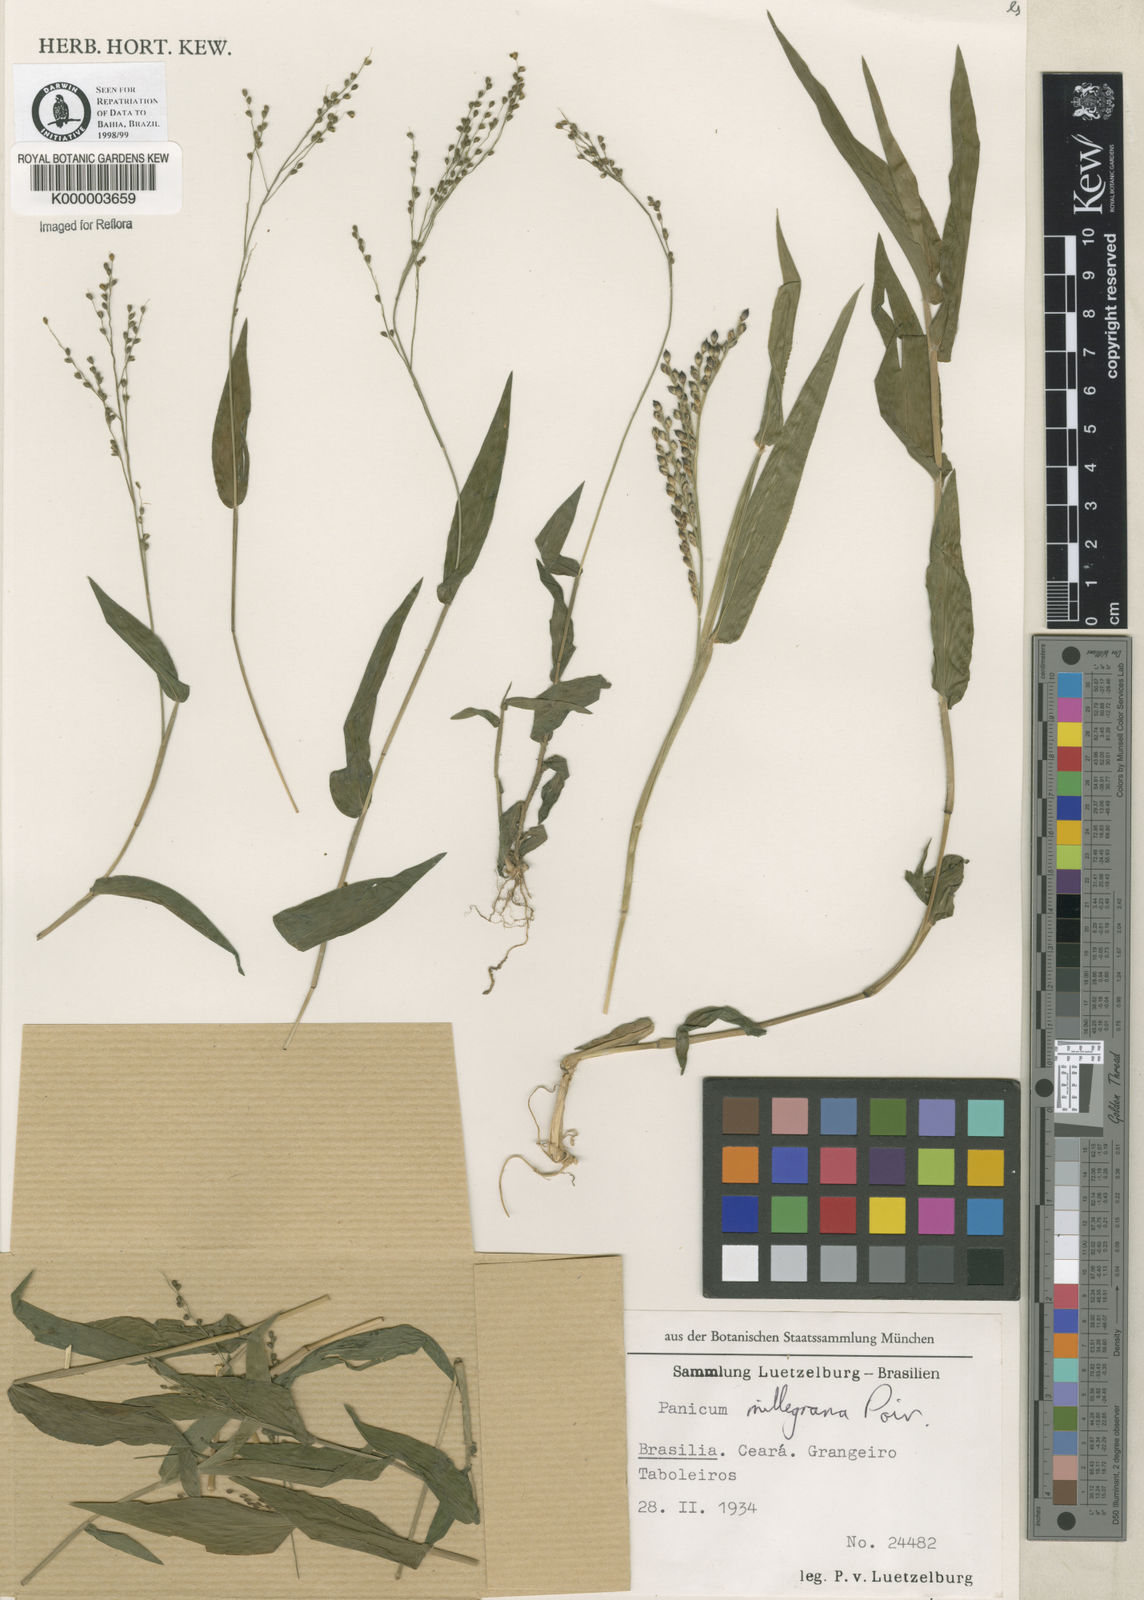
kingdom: Plantae
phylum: Tracheophyta
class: Liliopsida
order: Poales
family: Poaceae
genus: Panicum
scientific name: Panicum millegrana
